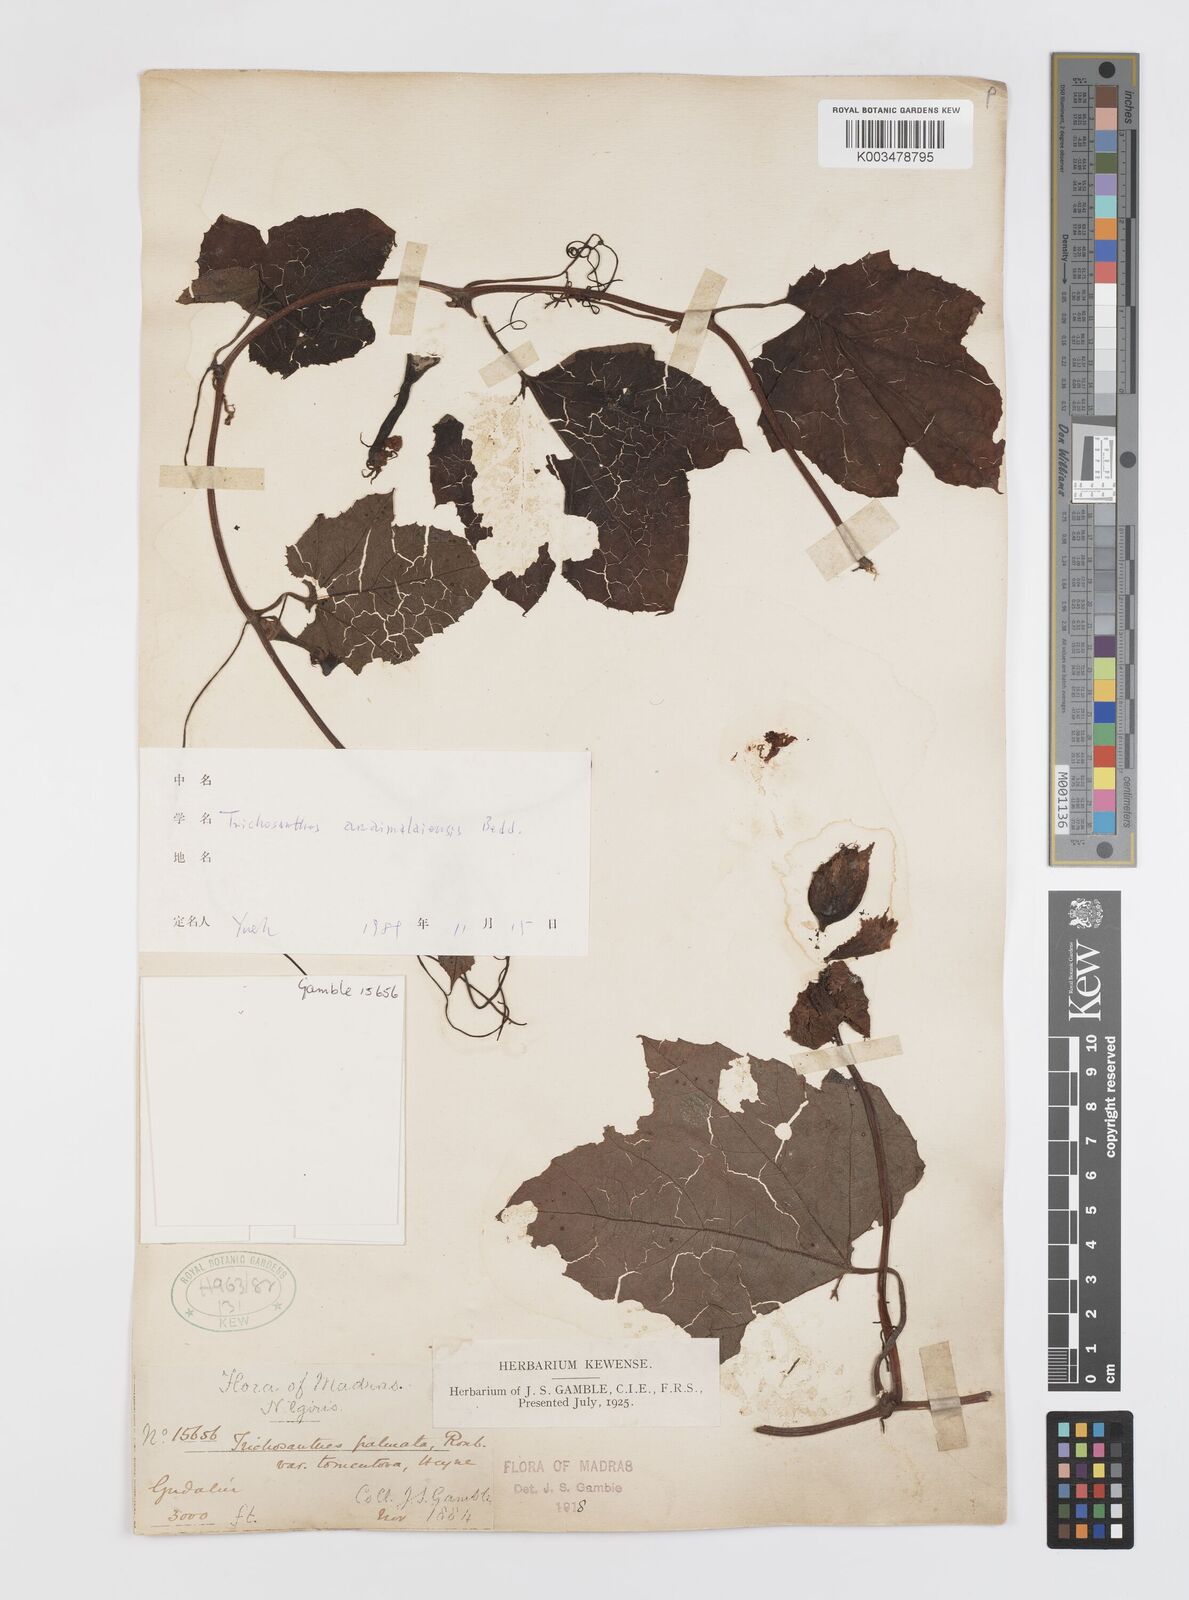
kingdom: Plantae
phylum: Tracheophyta
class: Magnoliopsida
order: Cucurbitales
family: Cucurbitaceae
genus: Trichosanthes
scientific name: Trichosanthes anaimalaiensis
